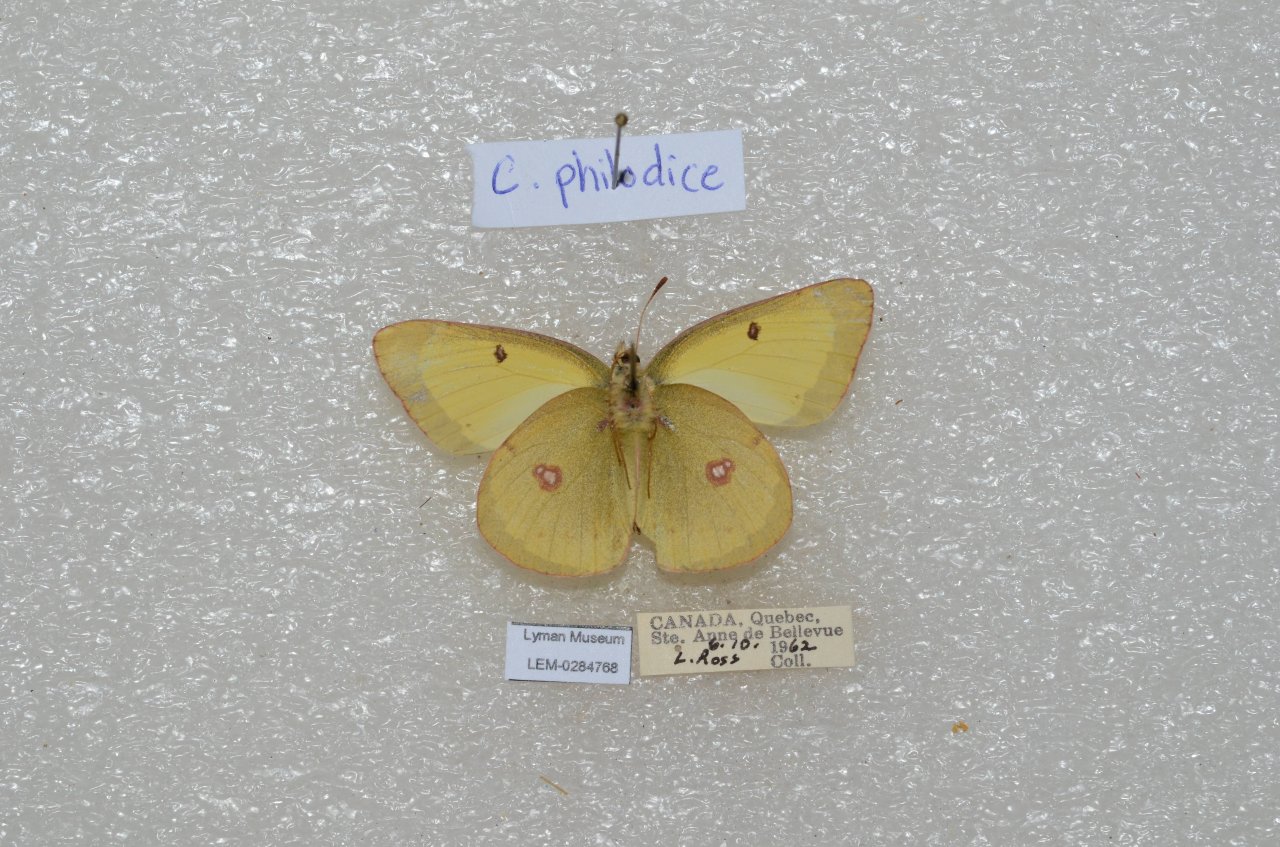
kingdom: Animalia
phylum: Arthropoda
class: Insecta
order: Lepidoptera
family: Pieridae
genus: Colias
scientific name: Colias philodice
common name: Clouded Sulphur
